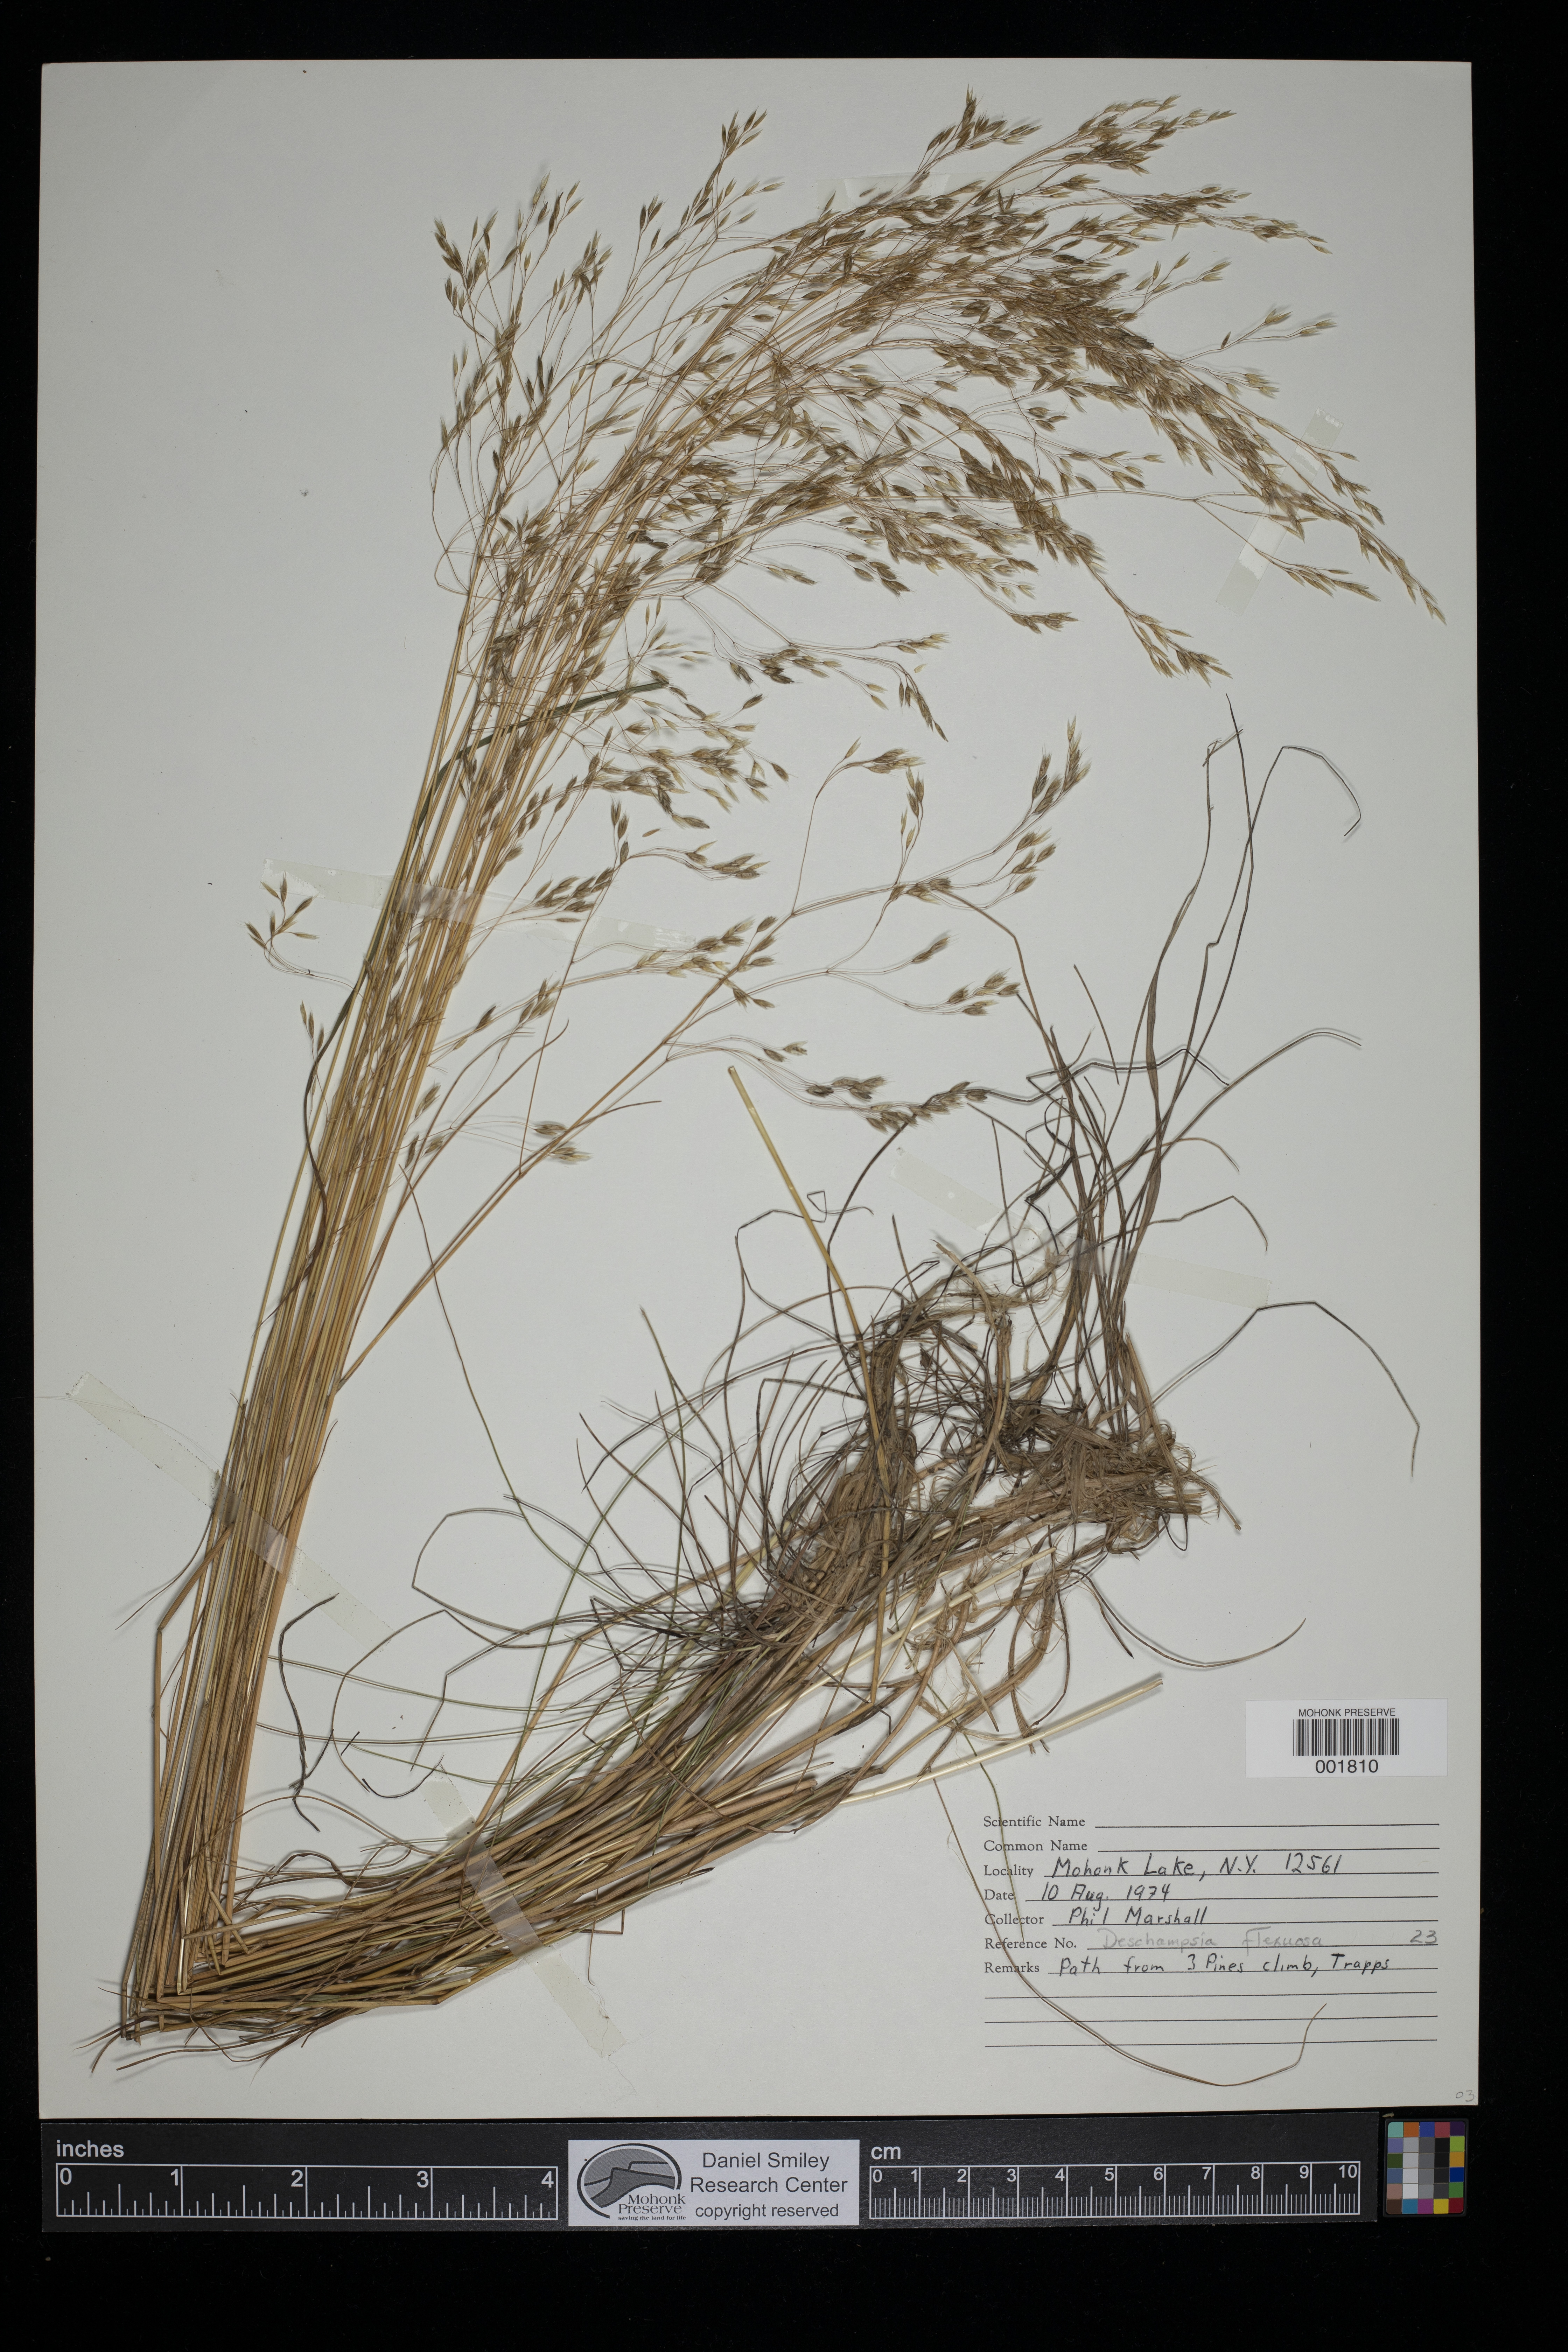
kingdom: Plantae
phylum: Tracheophyta
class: Liliopsida
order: Poales
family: Poaceae
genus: Avenella
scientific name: Avenella flexuosa
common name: Wavy hairgrass
